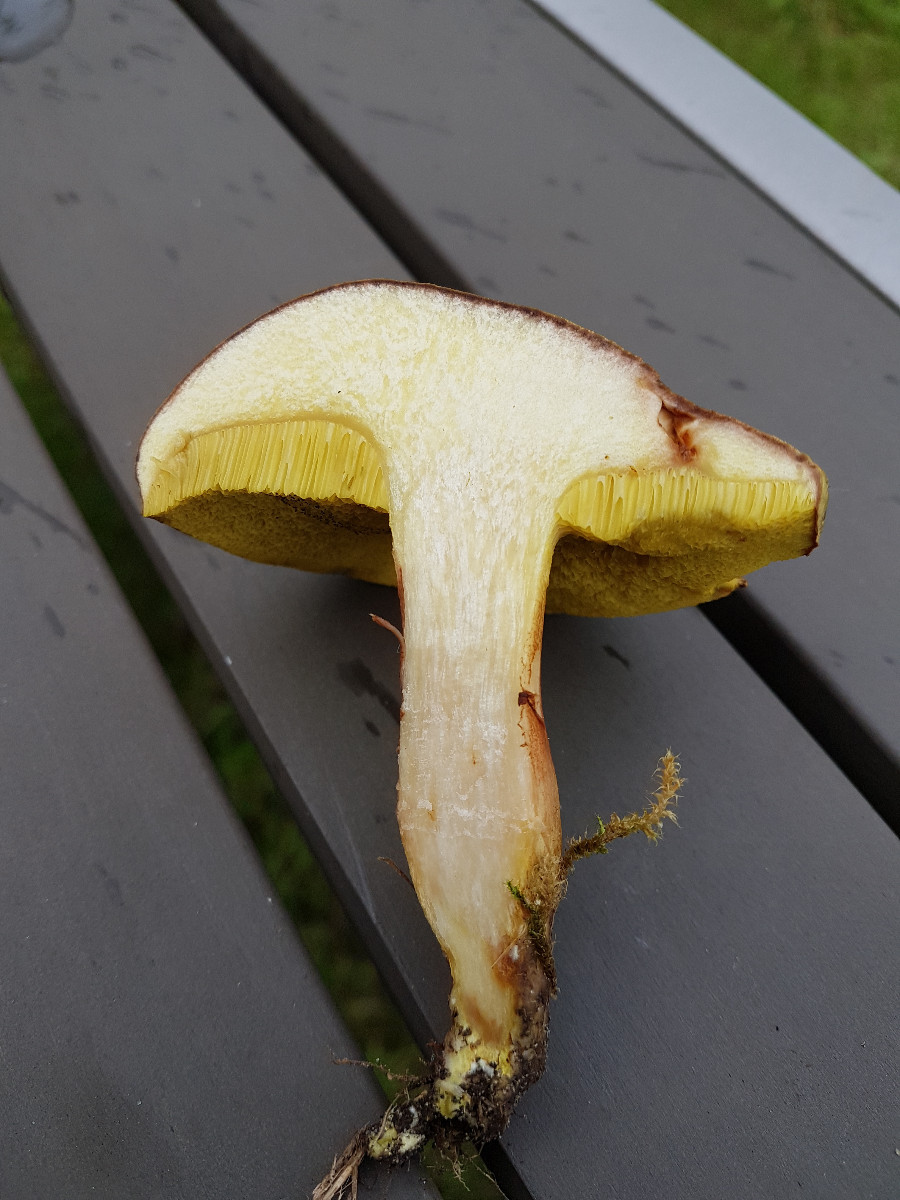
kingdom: Fungi
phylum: Basidiomycota
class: Agaricomycetes
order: Boletales
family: Boletaceae
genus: Xerocomus
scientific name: Xerocomus ferrugineus
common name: vaskeskinds-rørhat
